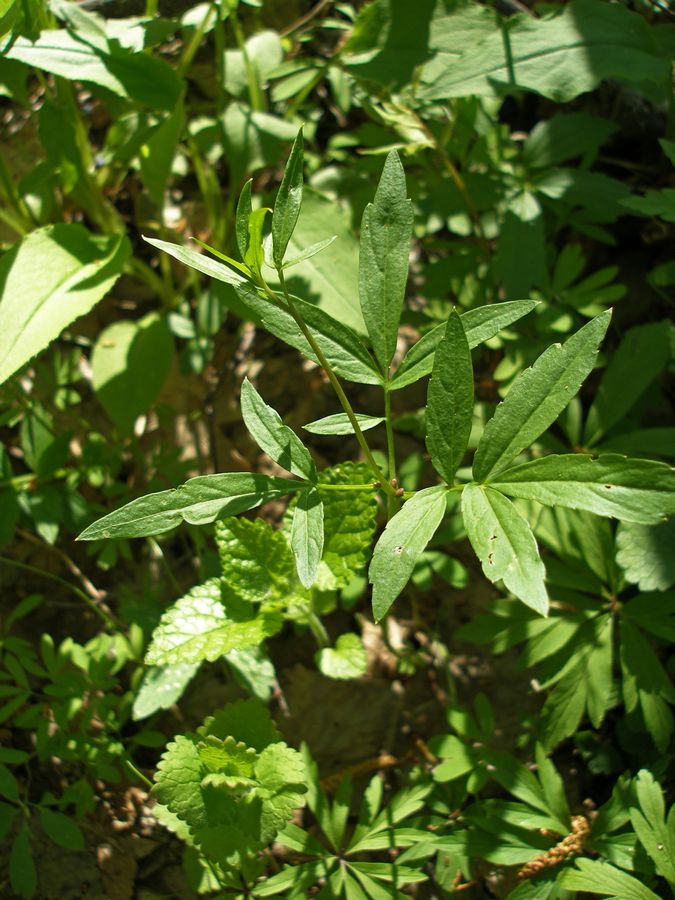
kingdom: Plantae
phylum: Tracheophyta
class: Magnoliopsida
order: Brassicales
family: Brassicaceae
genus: Cardamine
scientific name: Cardamine bulbifera
